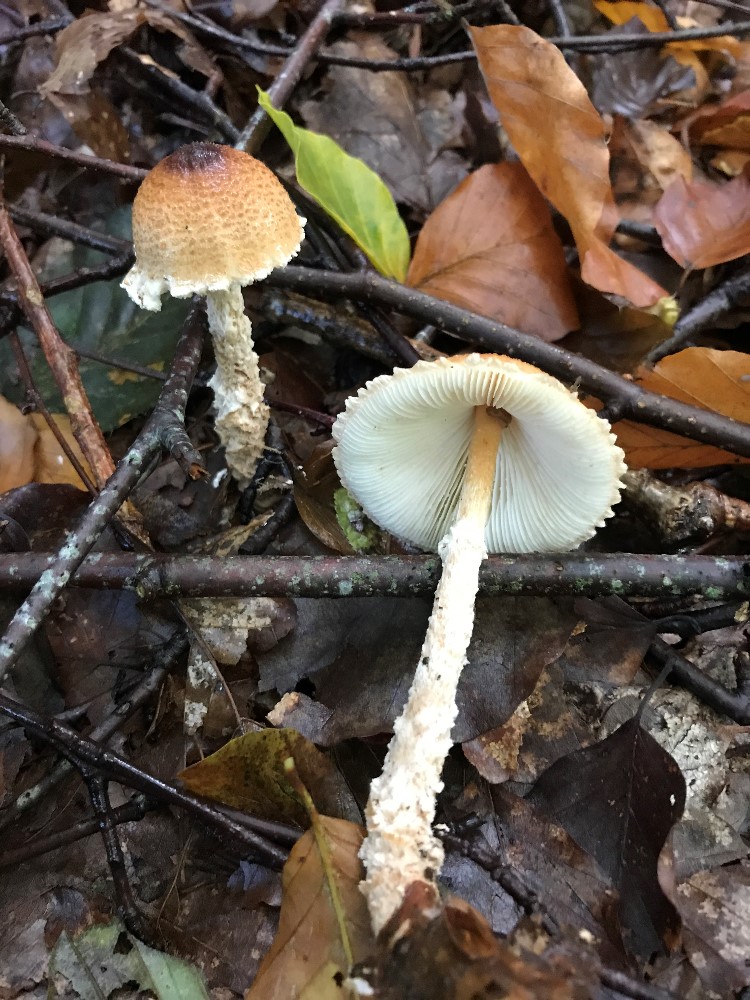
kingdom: Fungi
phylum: Basidiomycota
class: Agaricomycetes
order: Agaricales
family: Agaricaceae
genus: Lepiota
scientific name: Lepiota magnispora
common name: gulfnugget parasolhat
